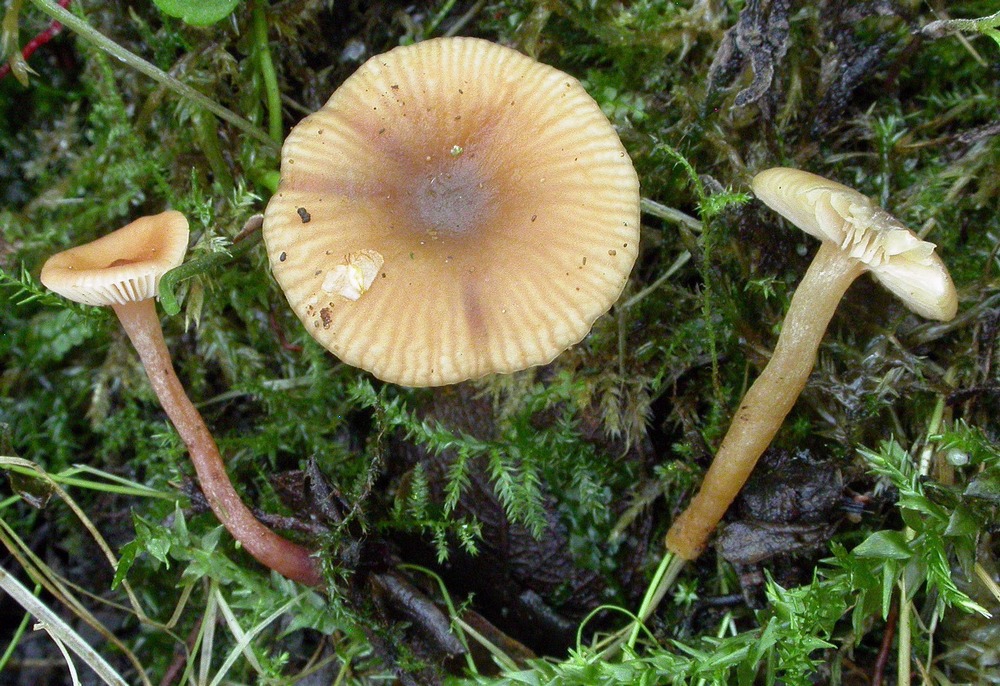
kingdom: Fungi
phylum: Basidiomycota
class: Agaricomycetes
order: Russulales
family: Russulaceae
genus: Lactarius
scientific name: Lactarius obscuratus
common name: elle-mælkehat
